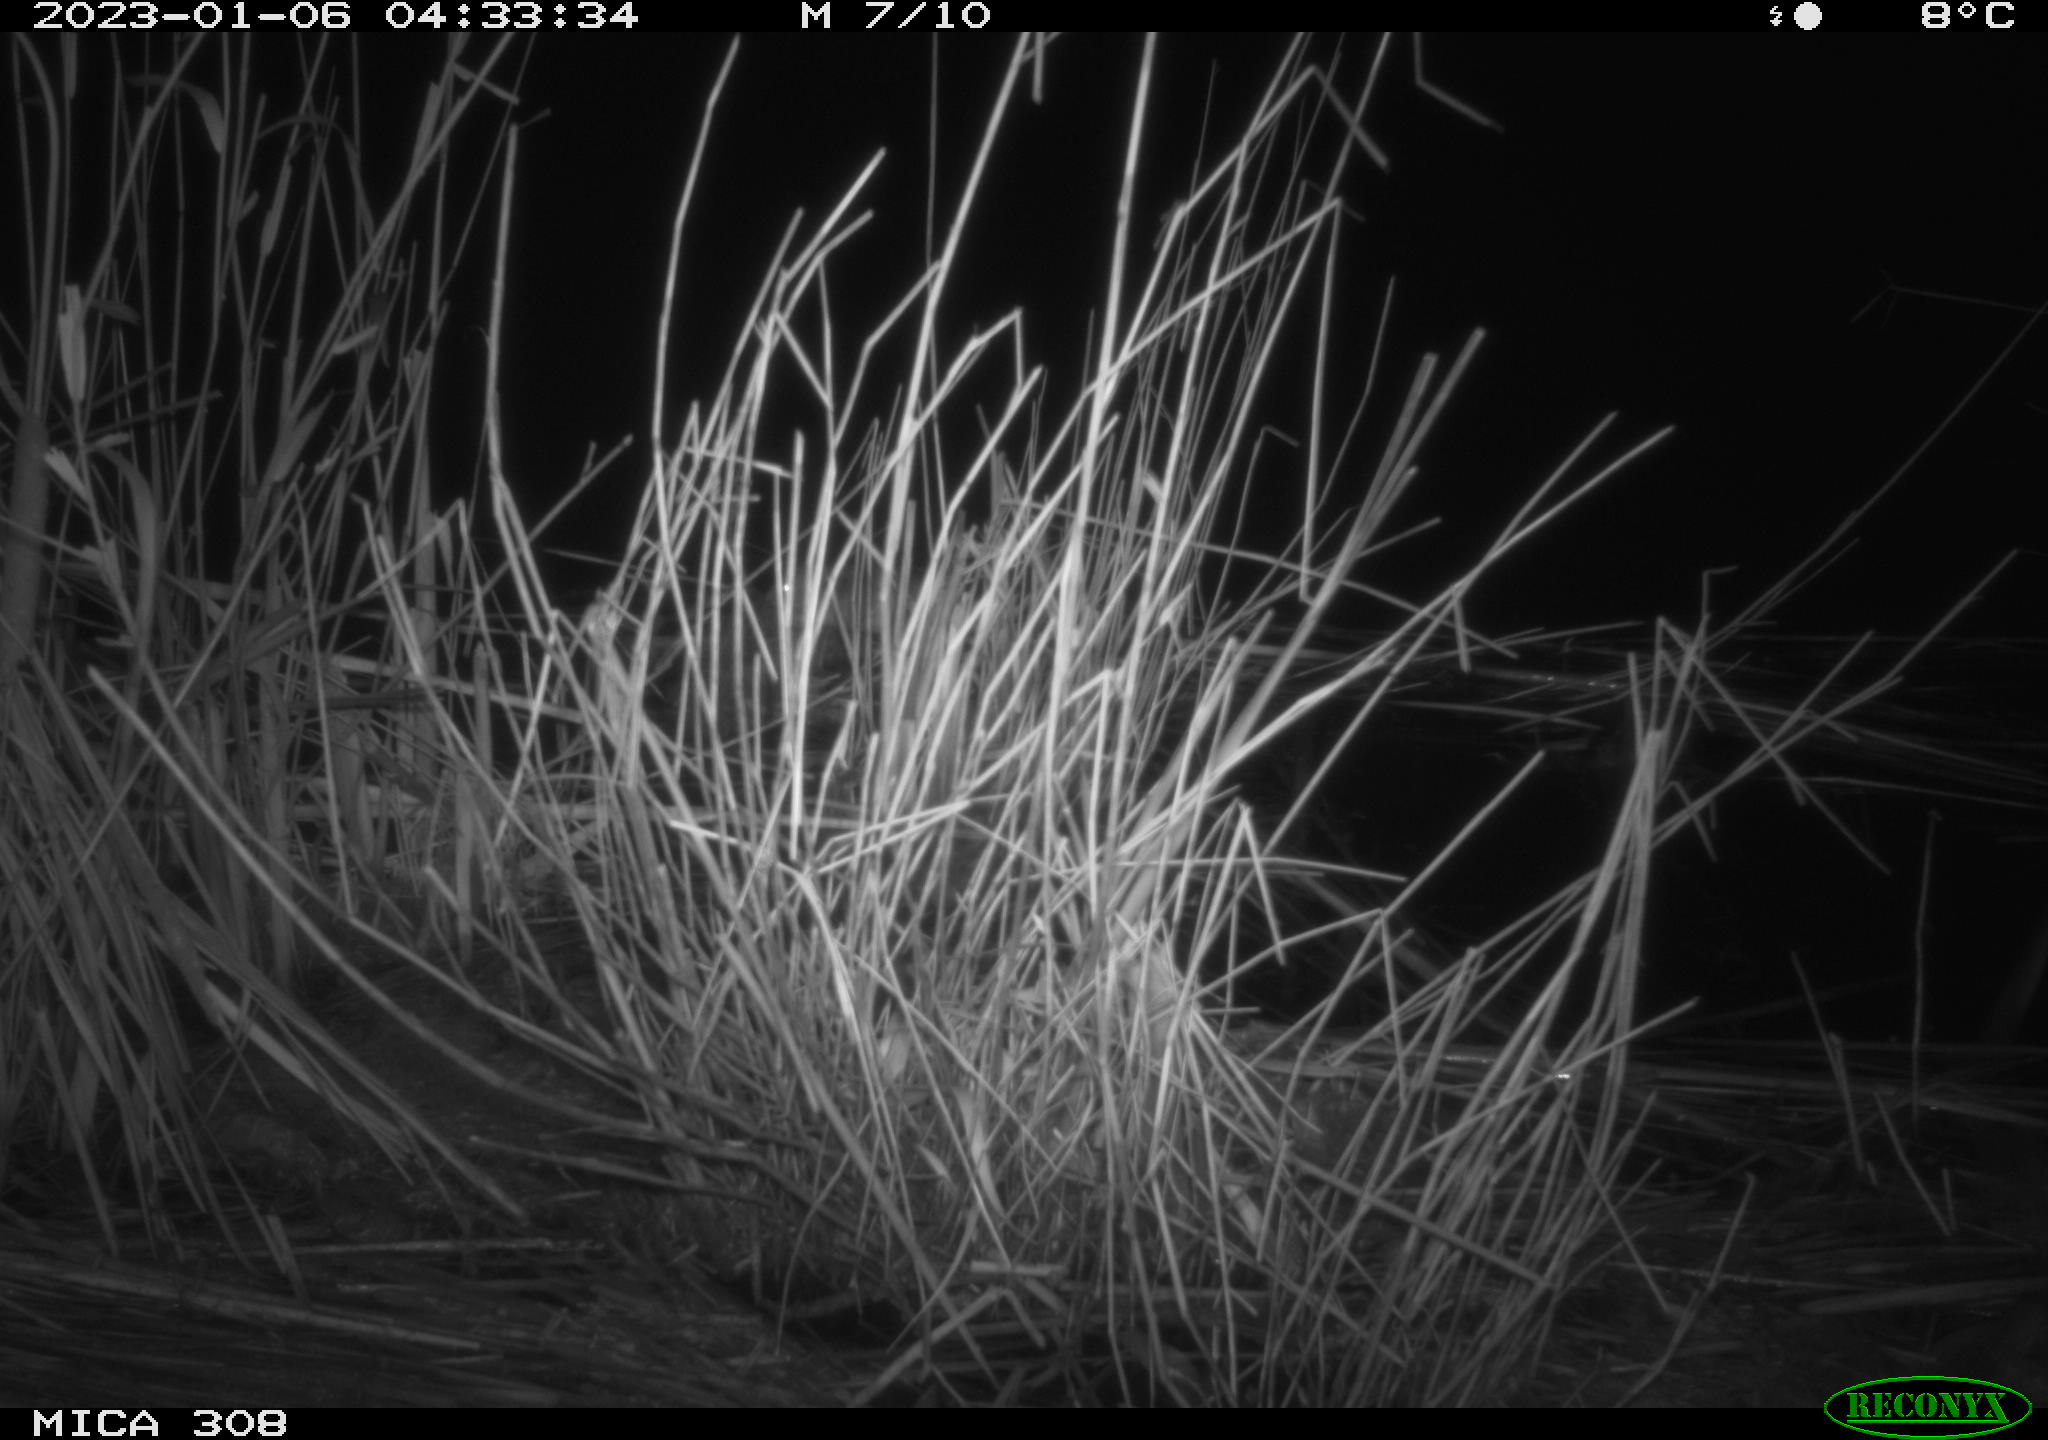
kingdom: Animalia
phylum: Chordata
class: Mammalia
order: Rodentia
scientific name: Rodentia
